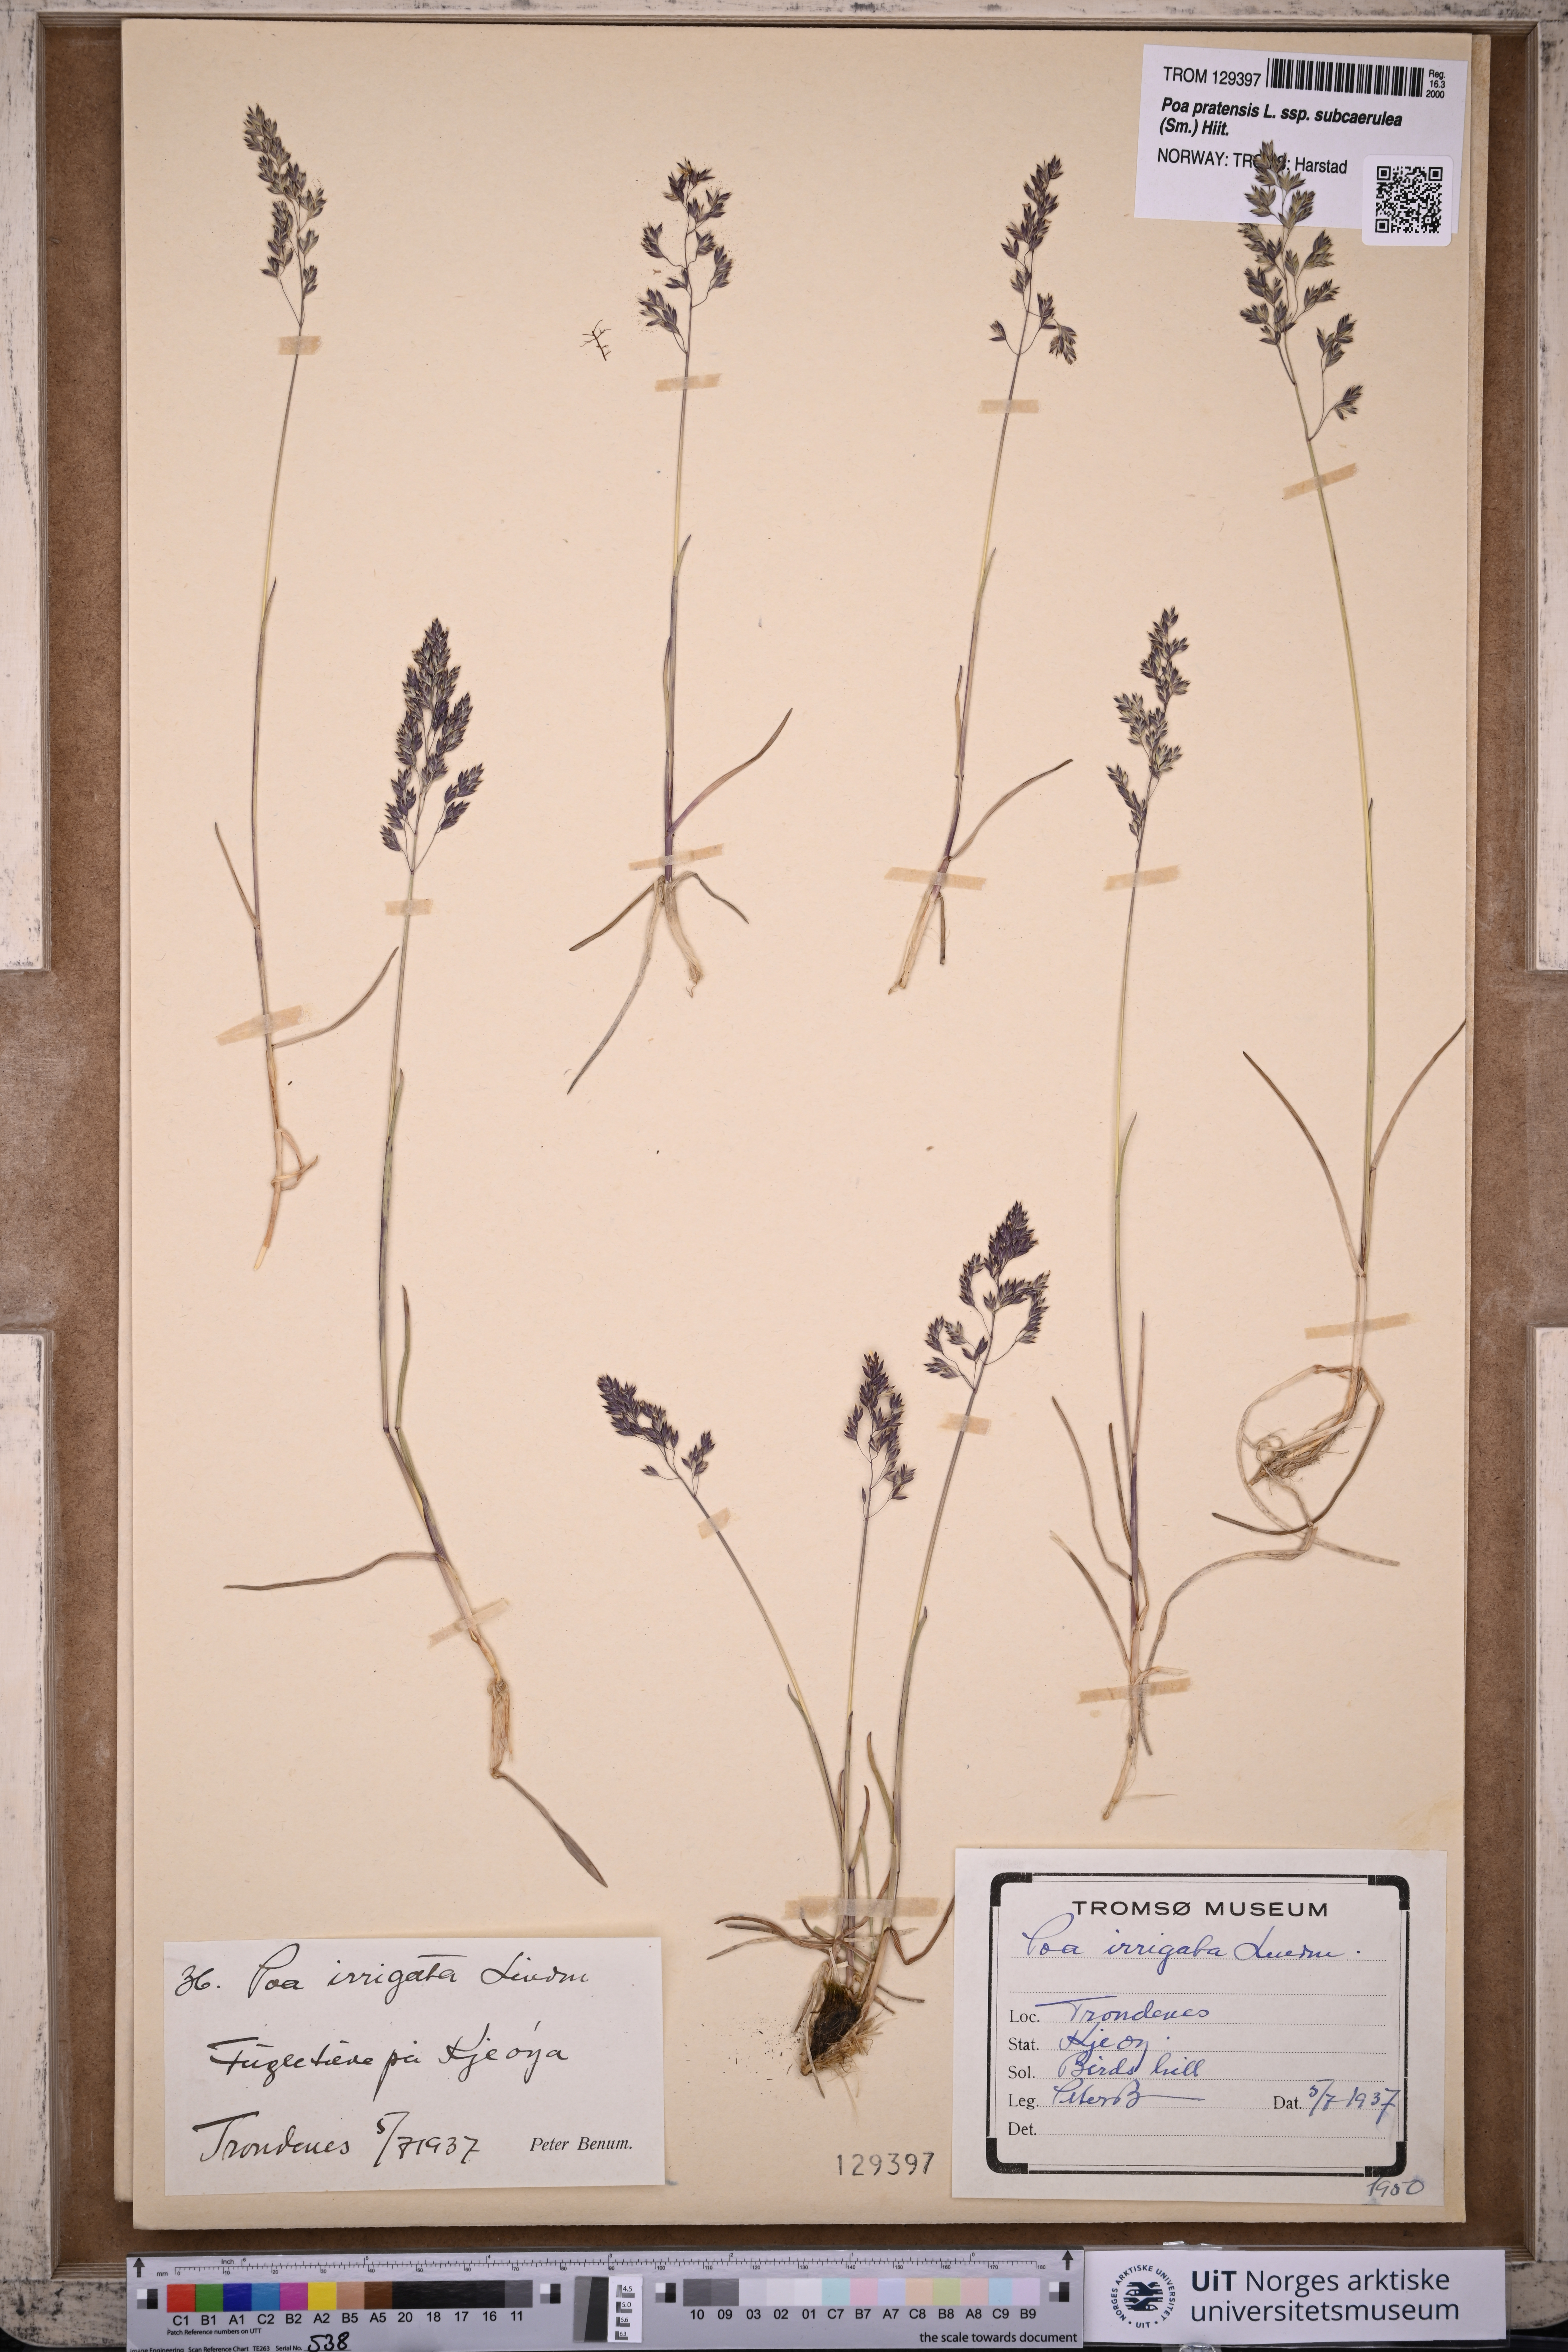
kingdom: Plantae
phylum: Tracheophyta
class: Liliopsida
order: Poales
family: Poaceae
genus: Poa
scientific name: Poa humilis
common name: Spreading meadow-grass
